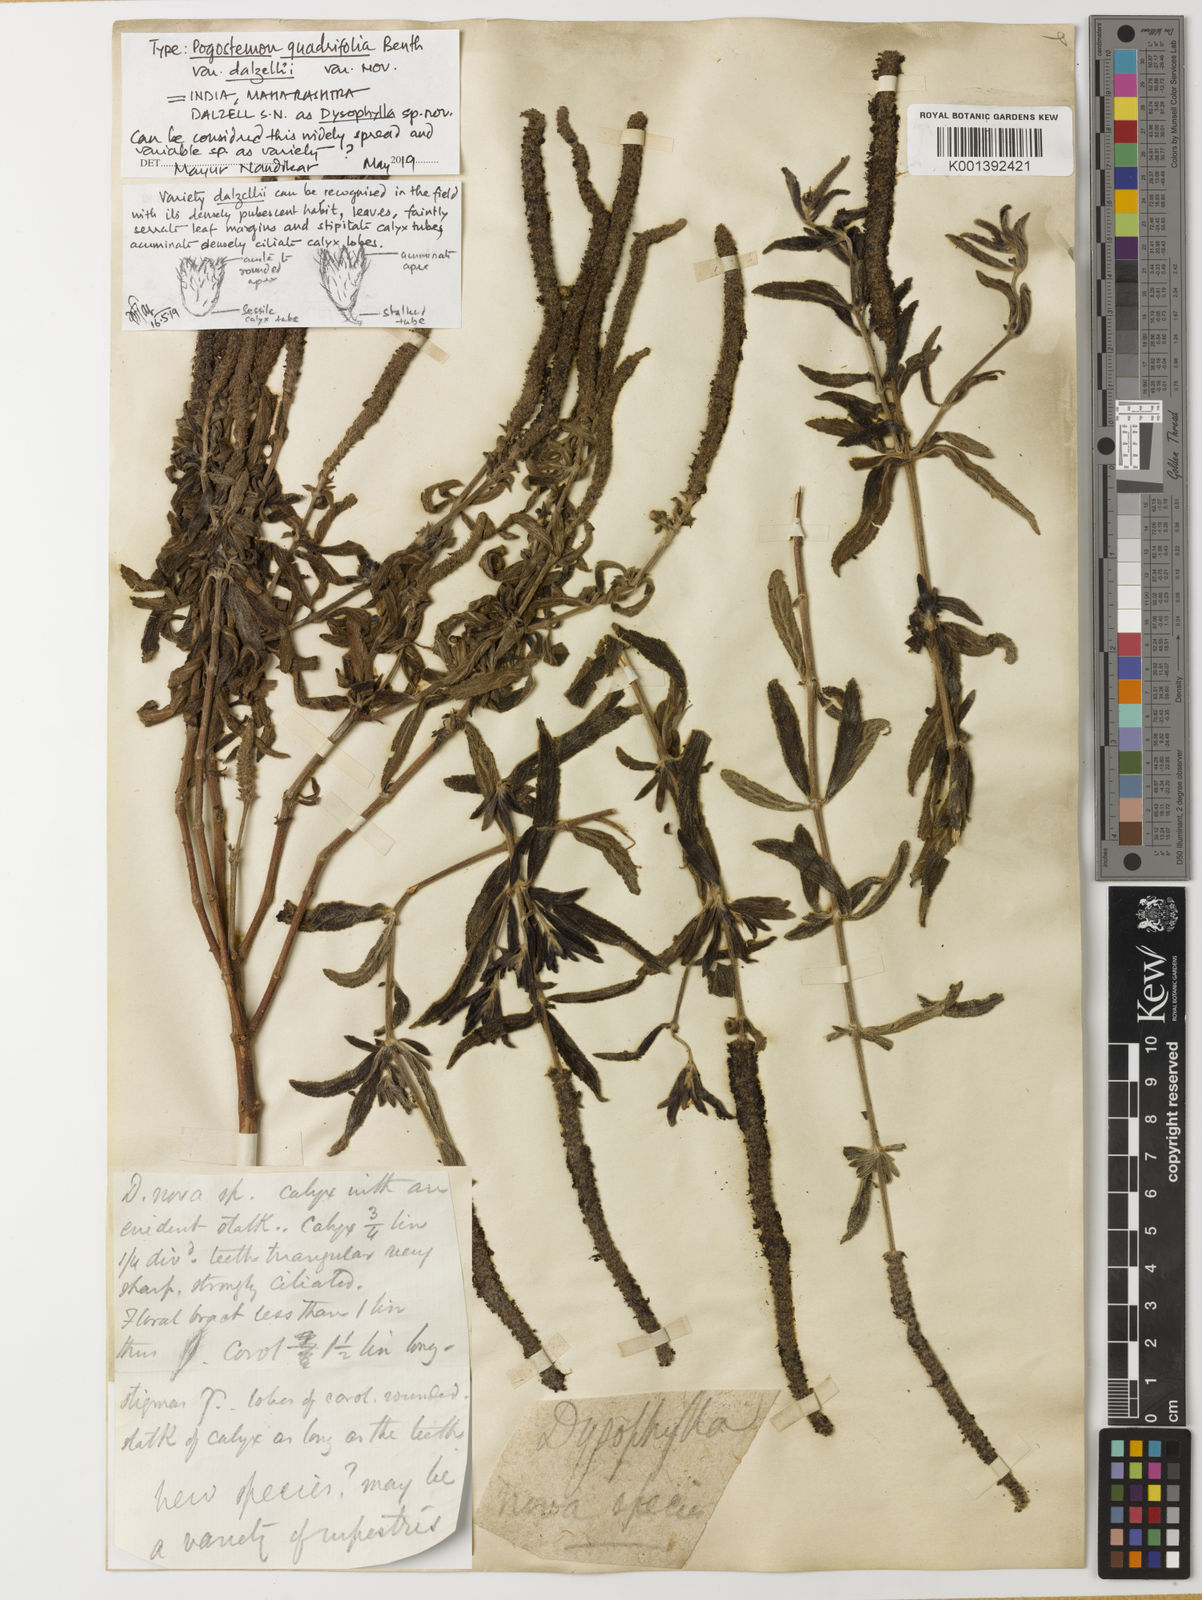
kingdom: Plantae
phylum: Tracheophyta
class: Magnoliopsida
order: Lamiales
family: Lamiaceae
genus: Pogostemon
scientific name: Pogostemon
